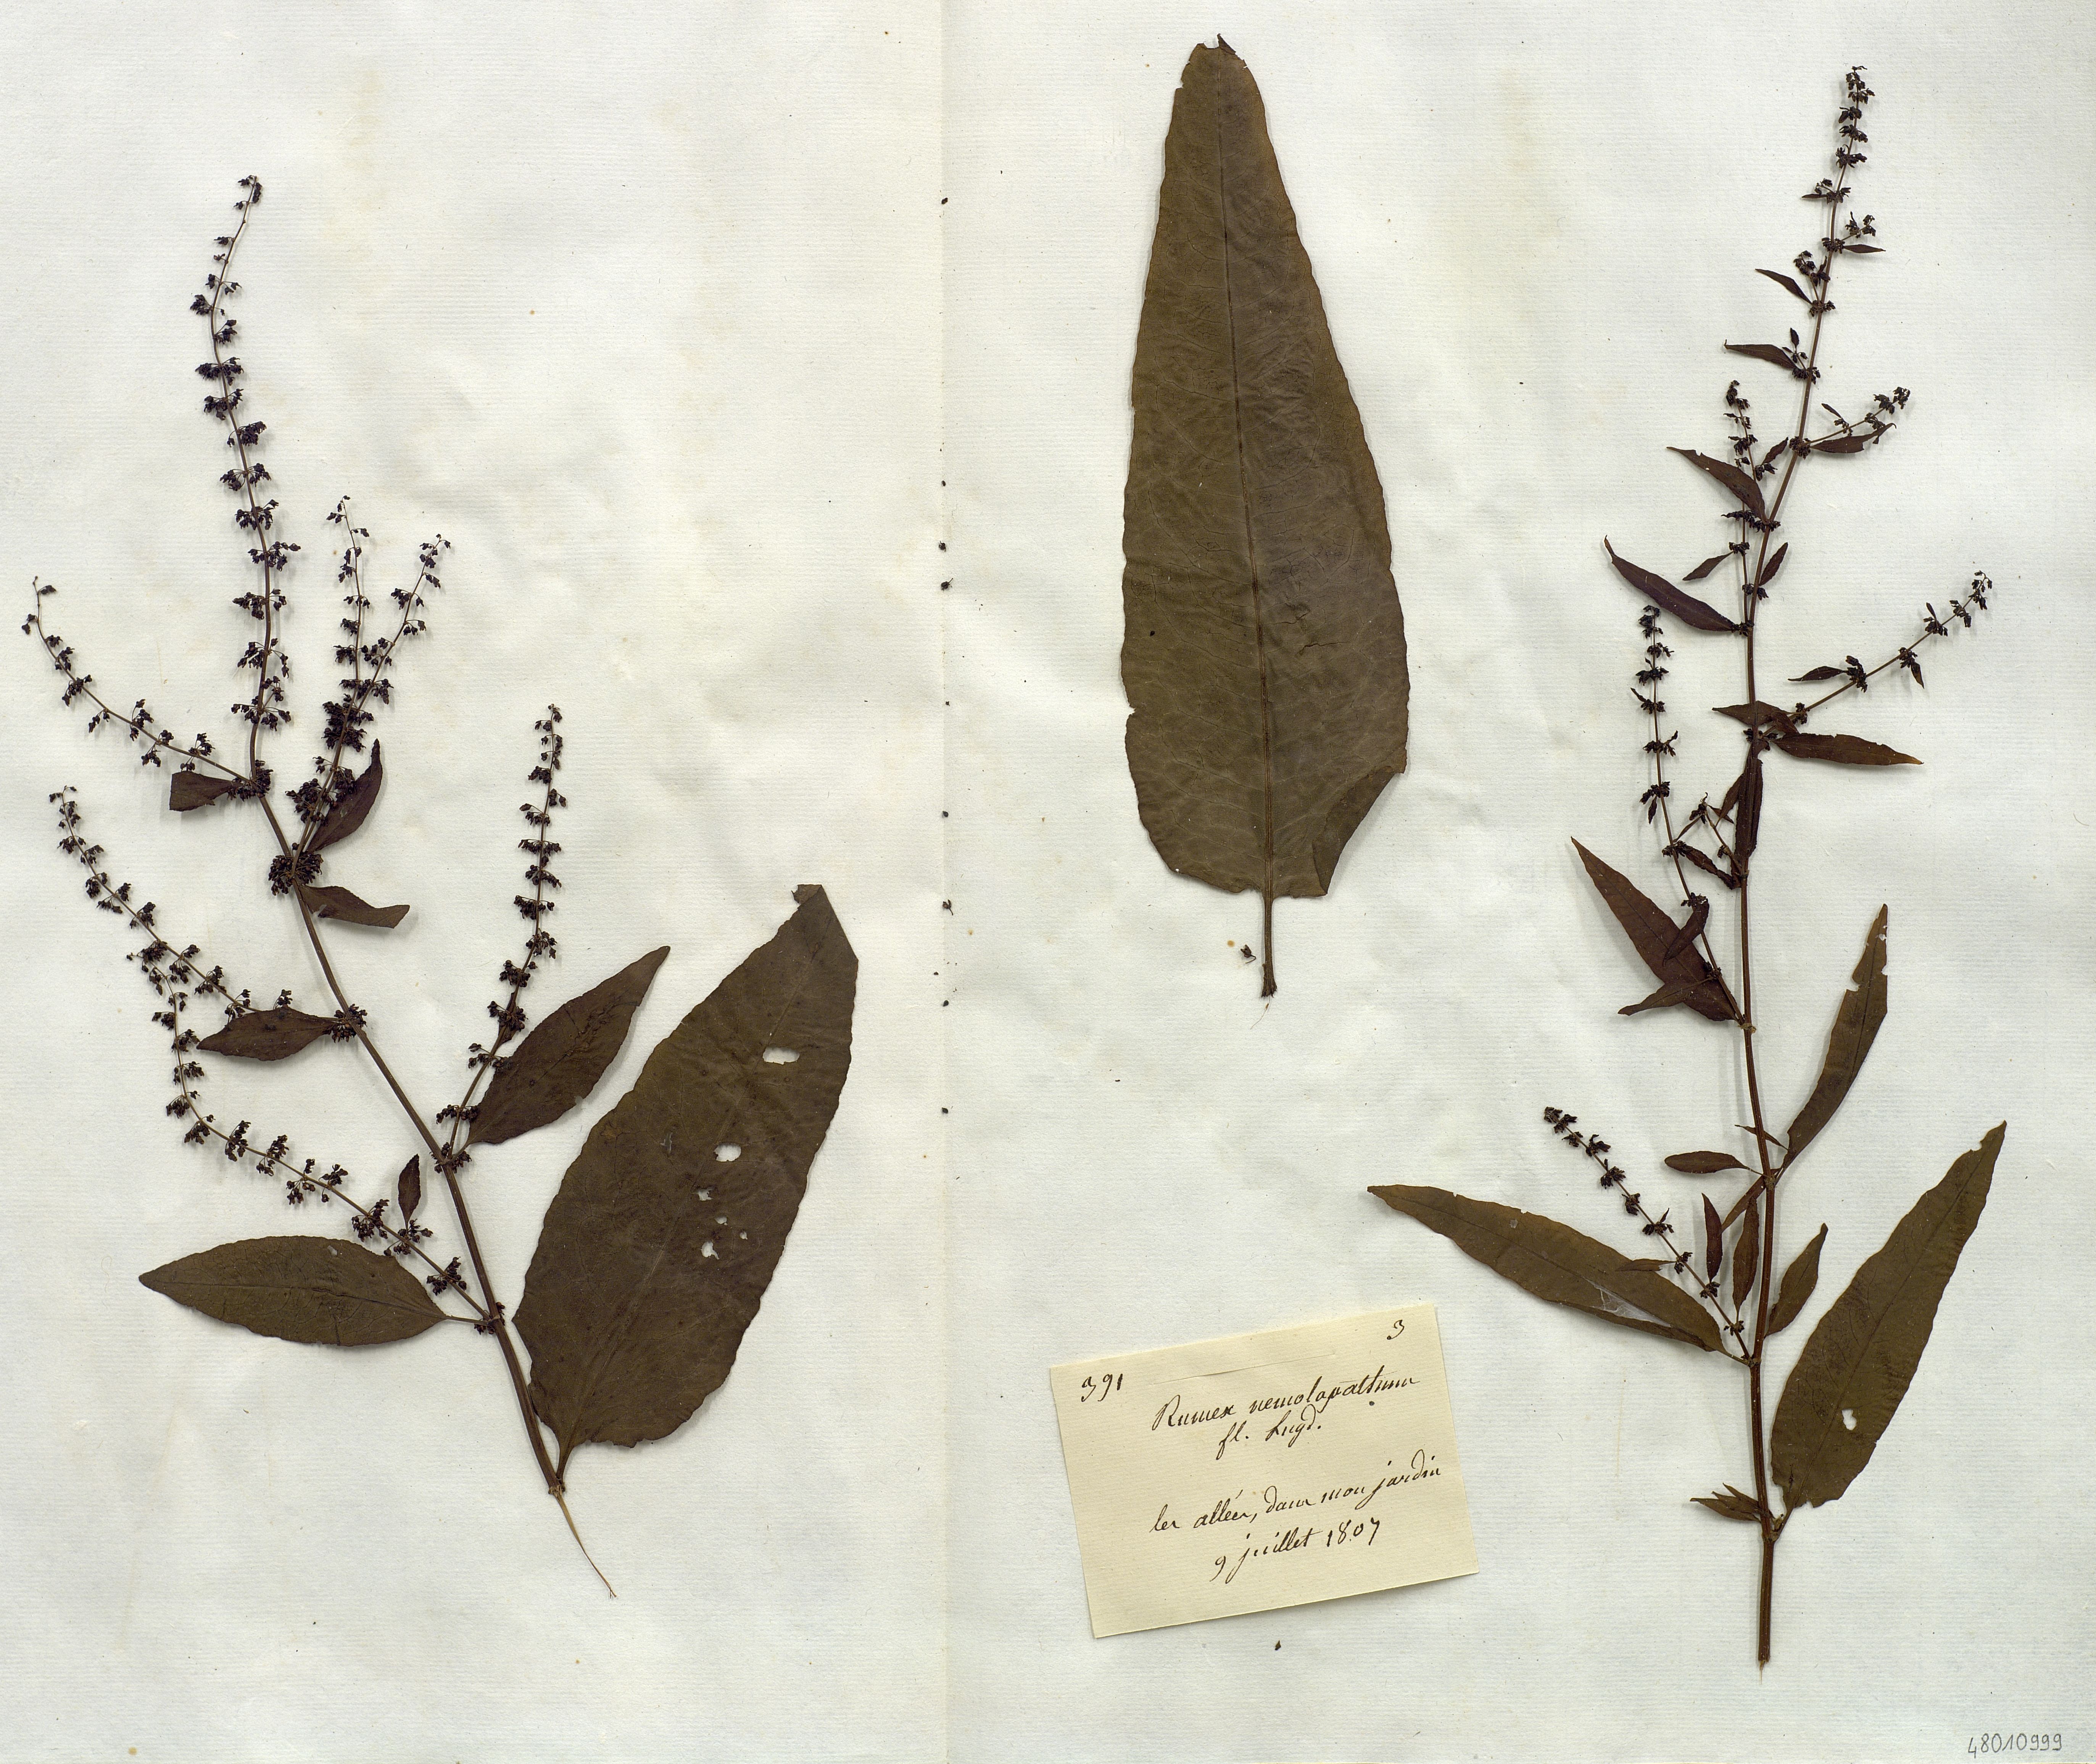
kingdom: Plantae
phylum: Tracheophyta
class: Magnoliopsida
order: Caryophyllales
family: Polygonaceae
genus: Rumex
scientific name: Rumex
